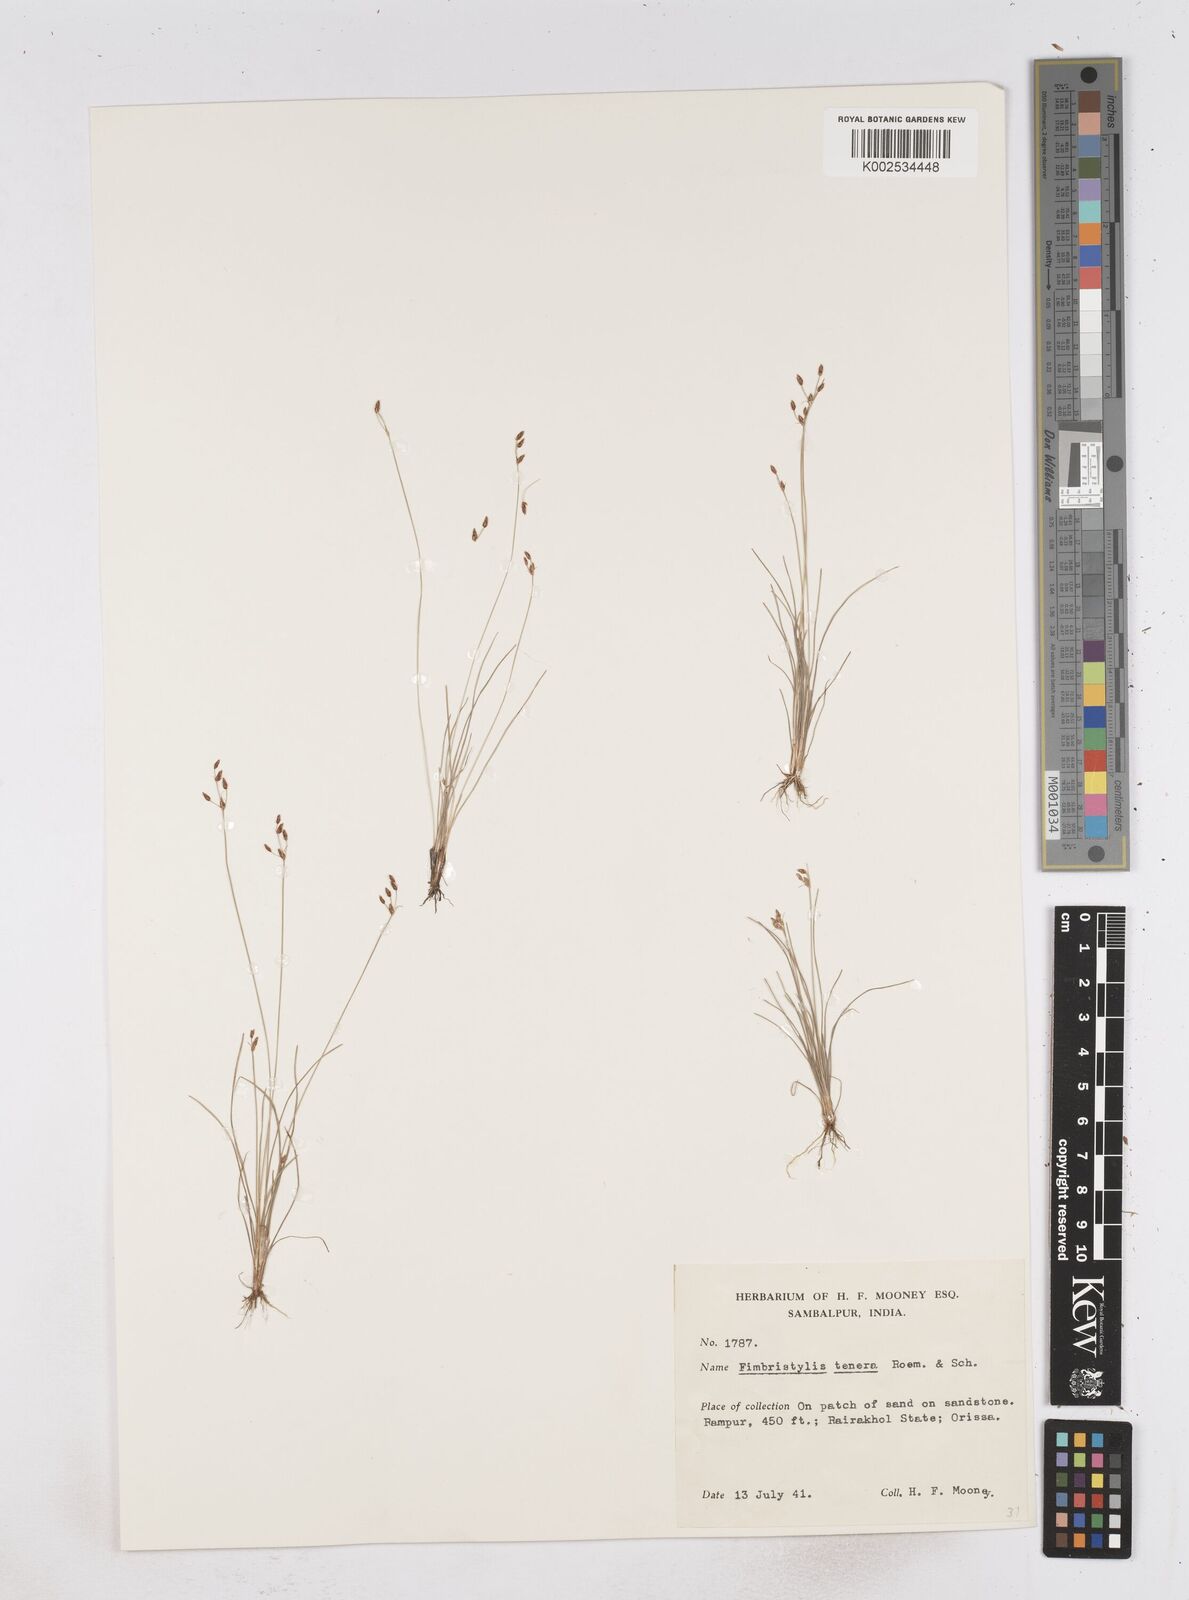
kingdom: Plantae
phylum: Tracheophyta
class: Liliopsida
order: Poales
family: Cyperaceae
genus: Fimbristylis
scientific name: Fimbristylis tenera
